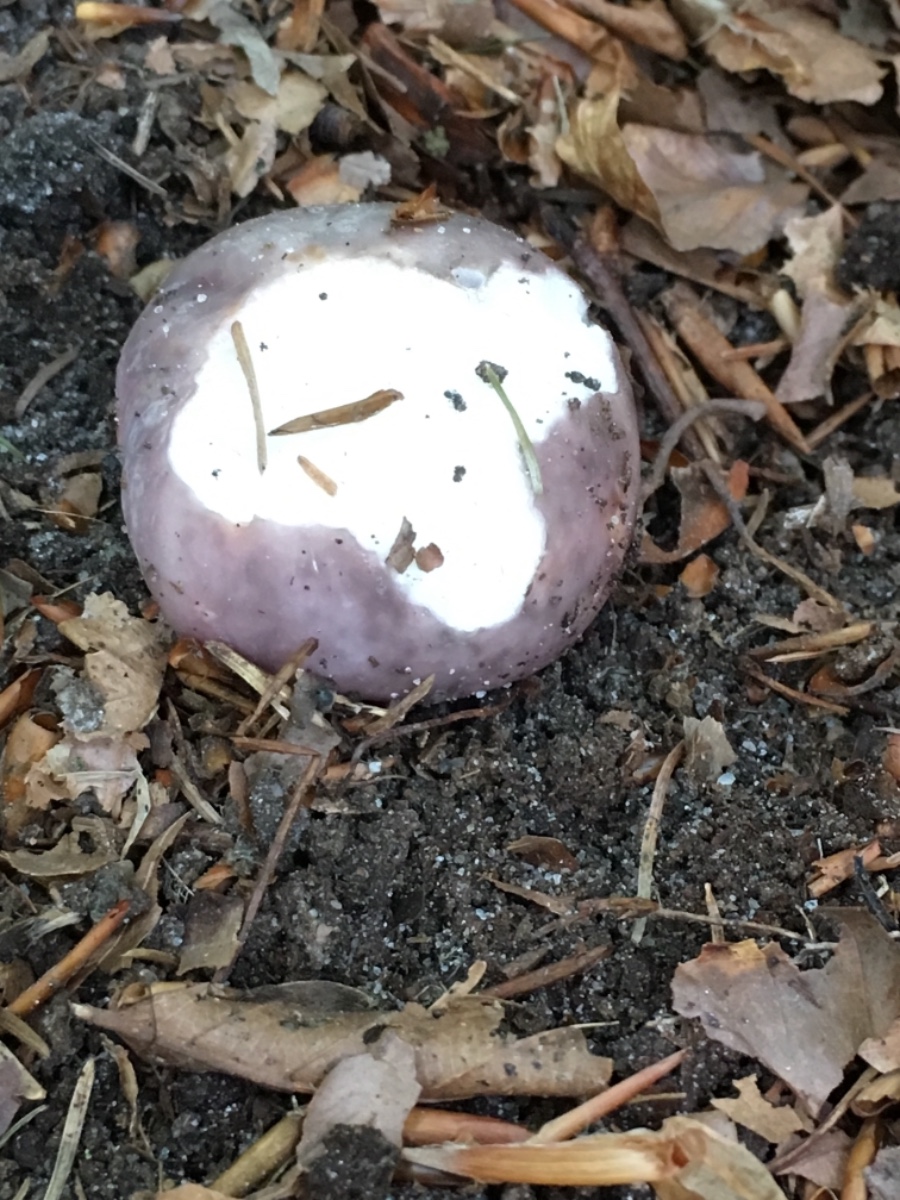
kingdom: Fungi
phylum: Basidiomycota
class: Agaricomycetes
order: Russulales
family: Russulaceae
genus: Russula
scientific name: Russula cyanoxantha
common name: broget skørhat
